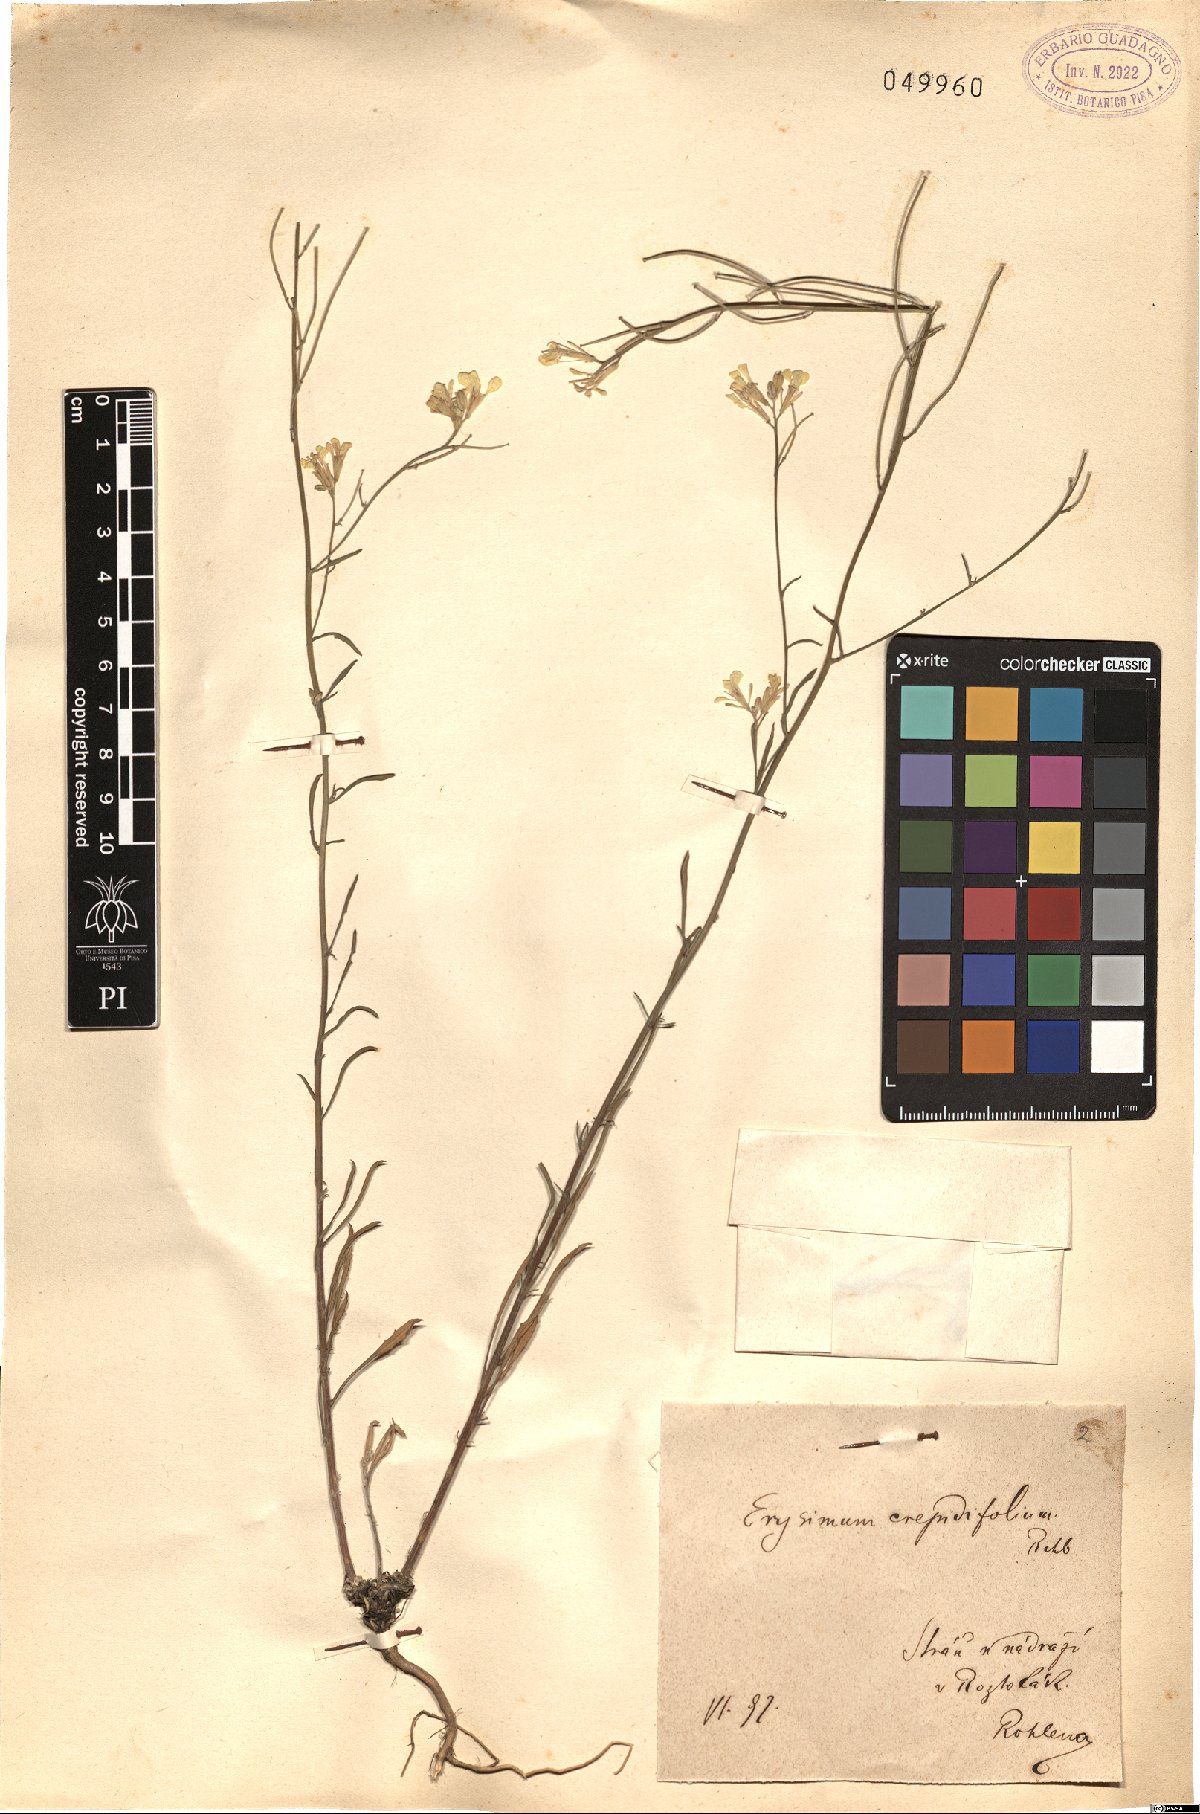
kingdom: Plantae
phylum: Tracheophyta
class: Magnoliopsida
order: Brassicales
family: Brassicaceae
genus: Erysimum
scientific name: Erysimum crepidifolium
